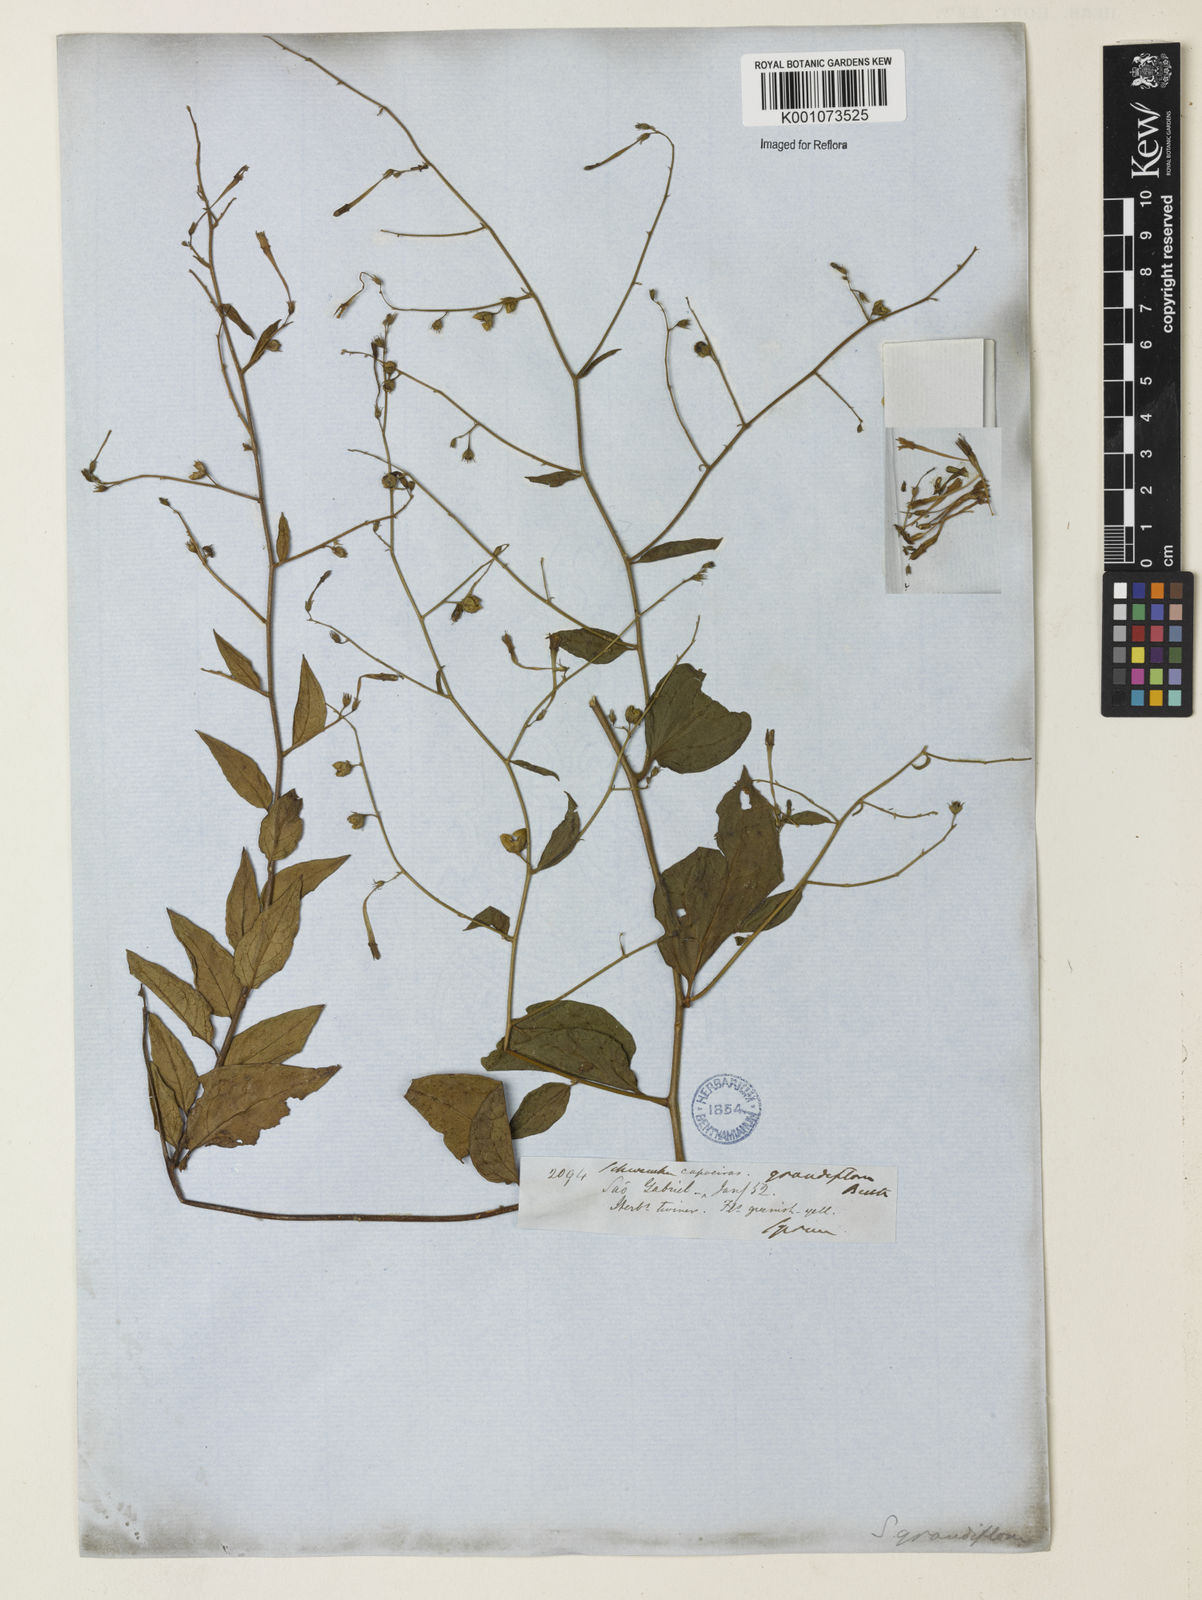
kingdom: Plantae
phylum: Tracheophyta
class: Magnoliopsida
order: Solanales
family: Solanaceae
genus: Schwenckia
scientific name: Schwenckia grandiflora
